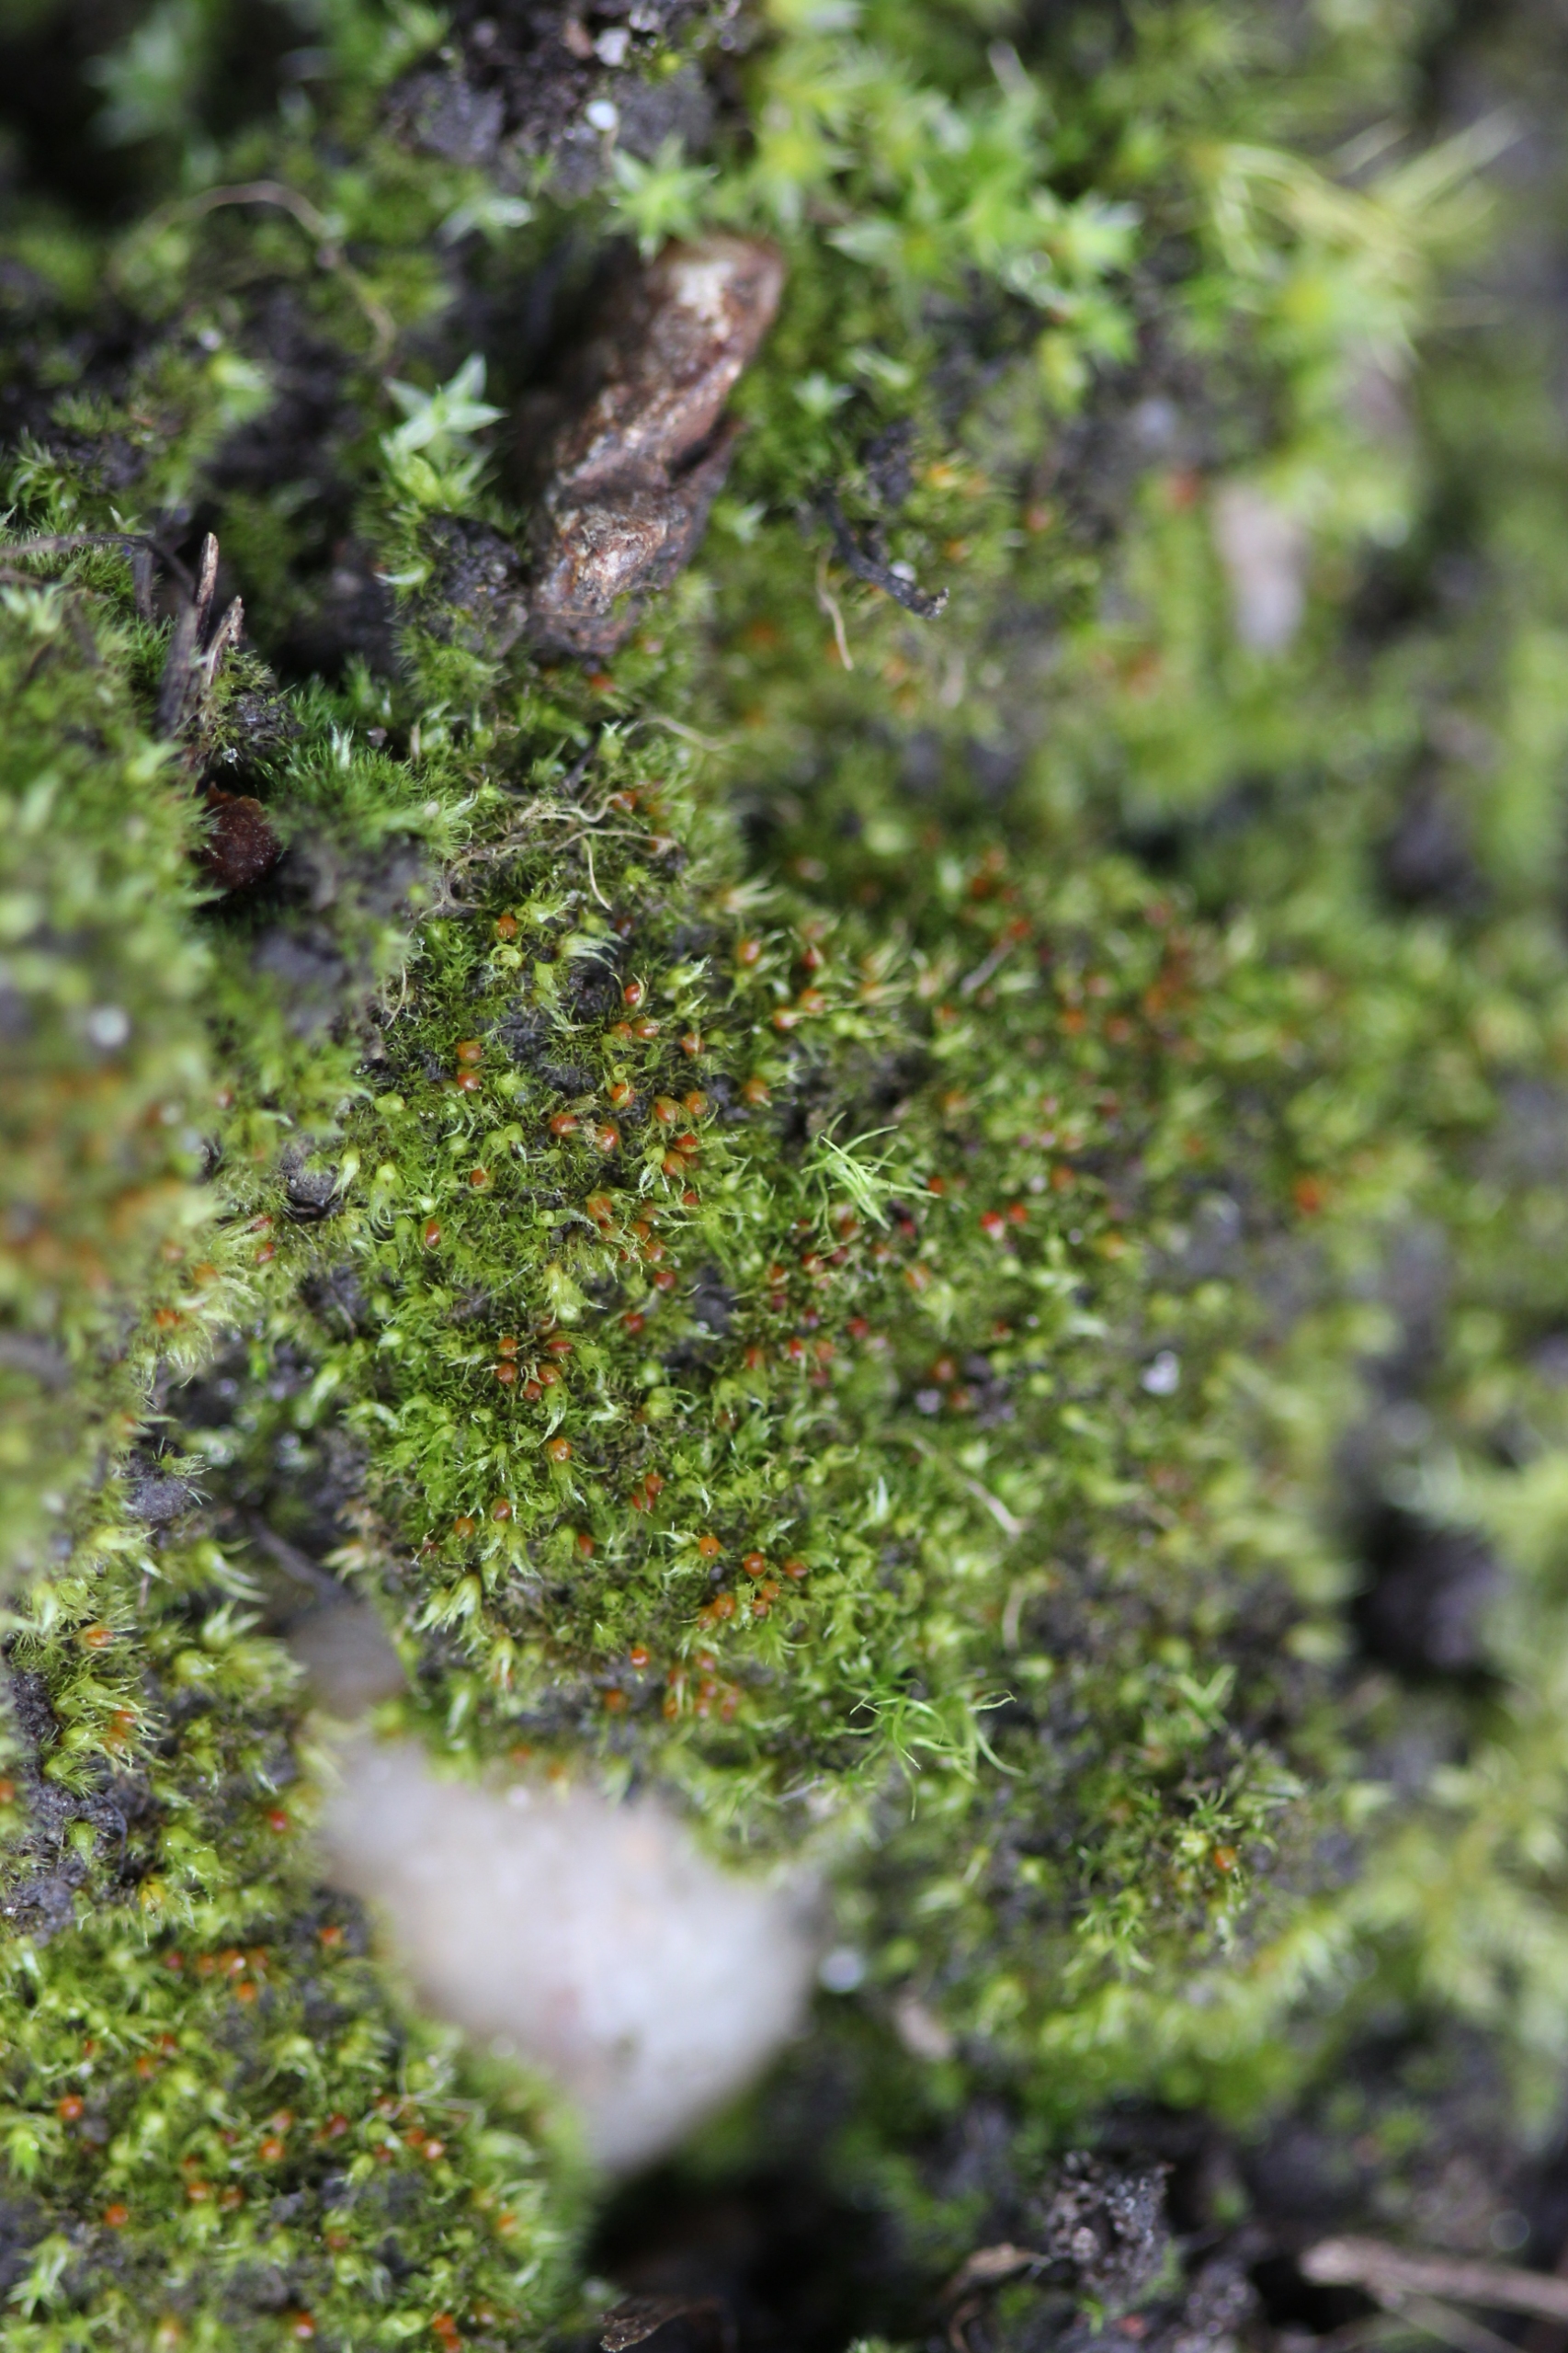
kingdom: Plantae
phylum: Bryophyta
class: Bryopsida
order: Pottiales
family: Ephemeraceae
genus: Ephemerum
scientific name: Ephemerum serratum
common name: Vortet døgnmos
